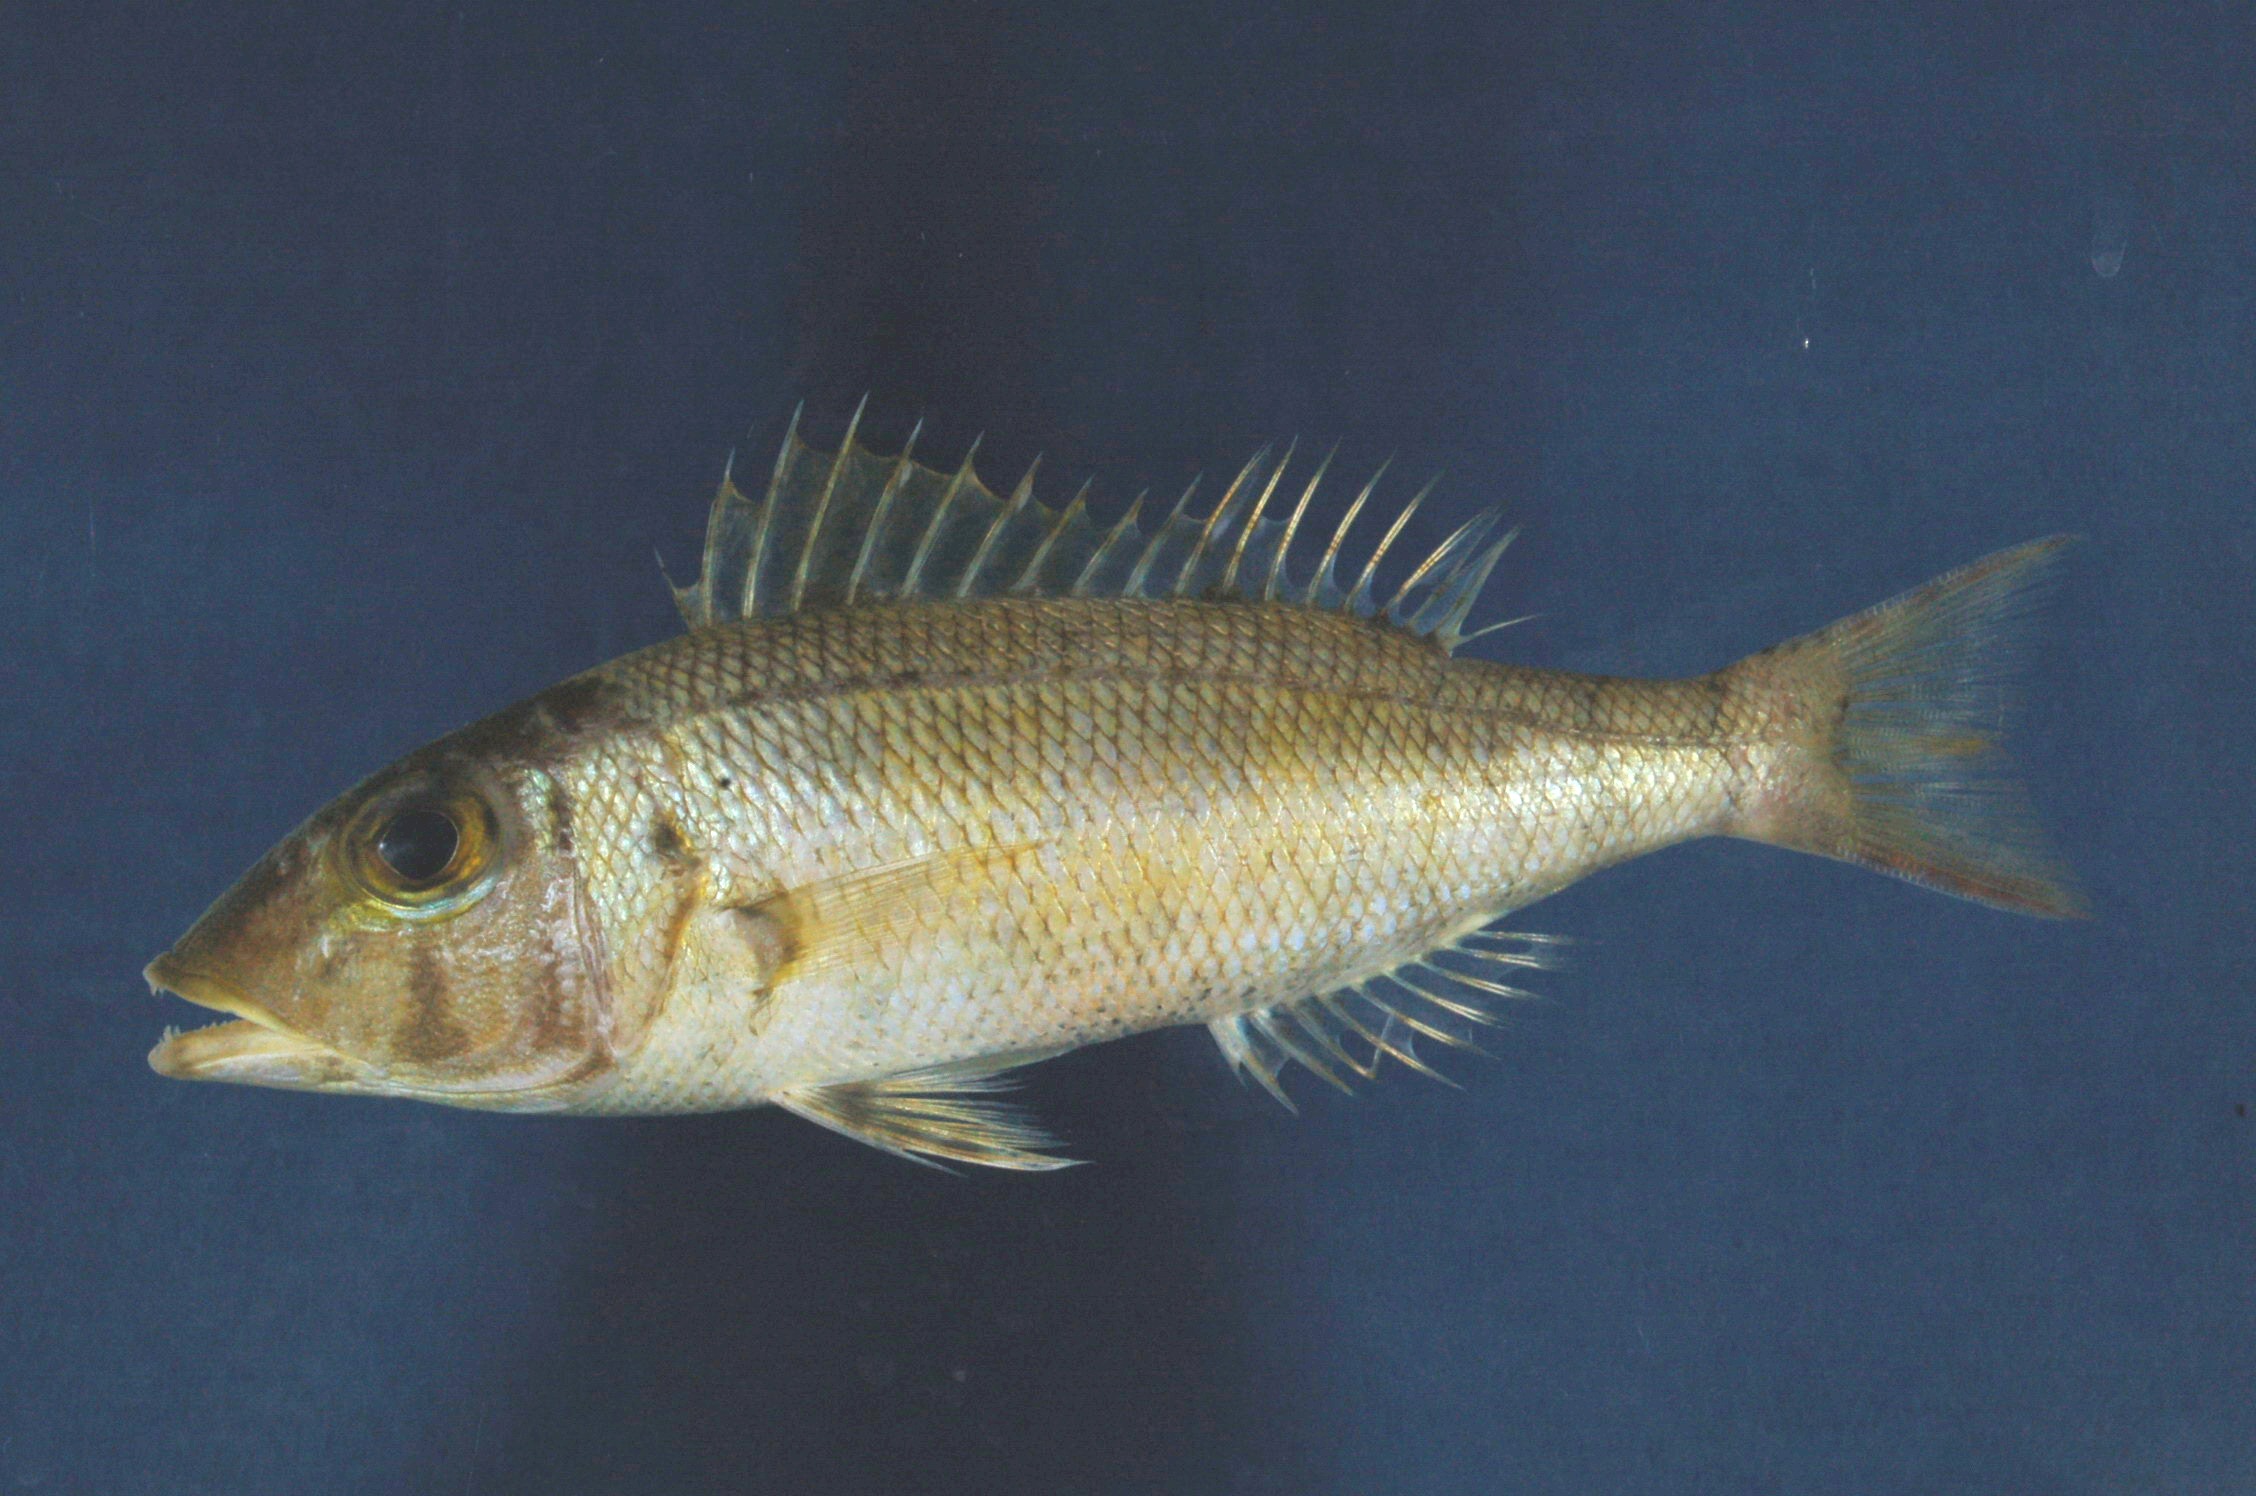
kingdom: Animalia
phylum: Chordata
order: Perciformes
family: Lethrinidae
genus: Lethrinus
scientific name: Lethrinus variegatus
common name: Variegated emperor
